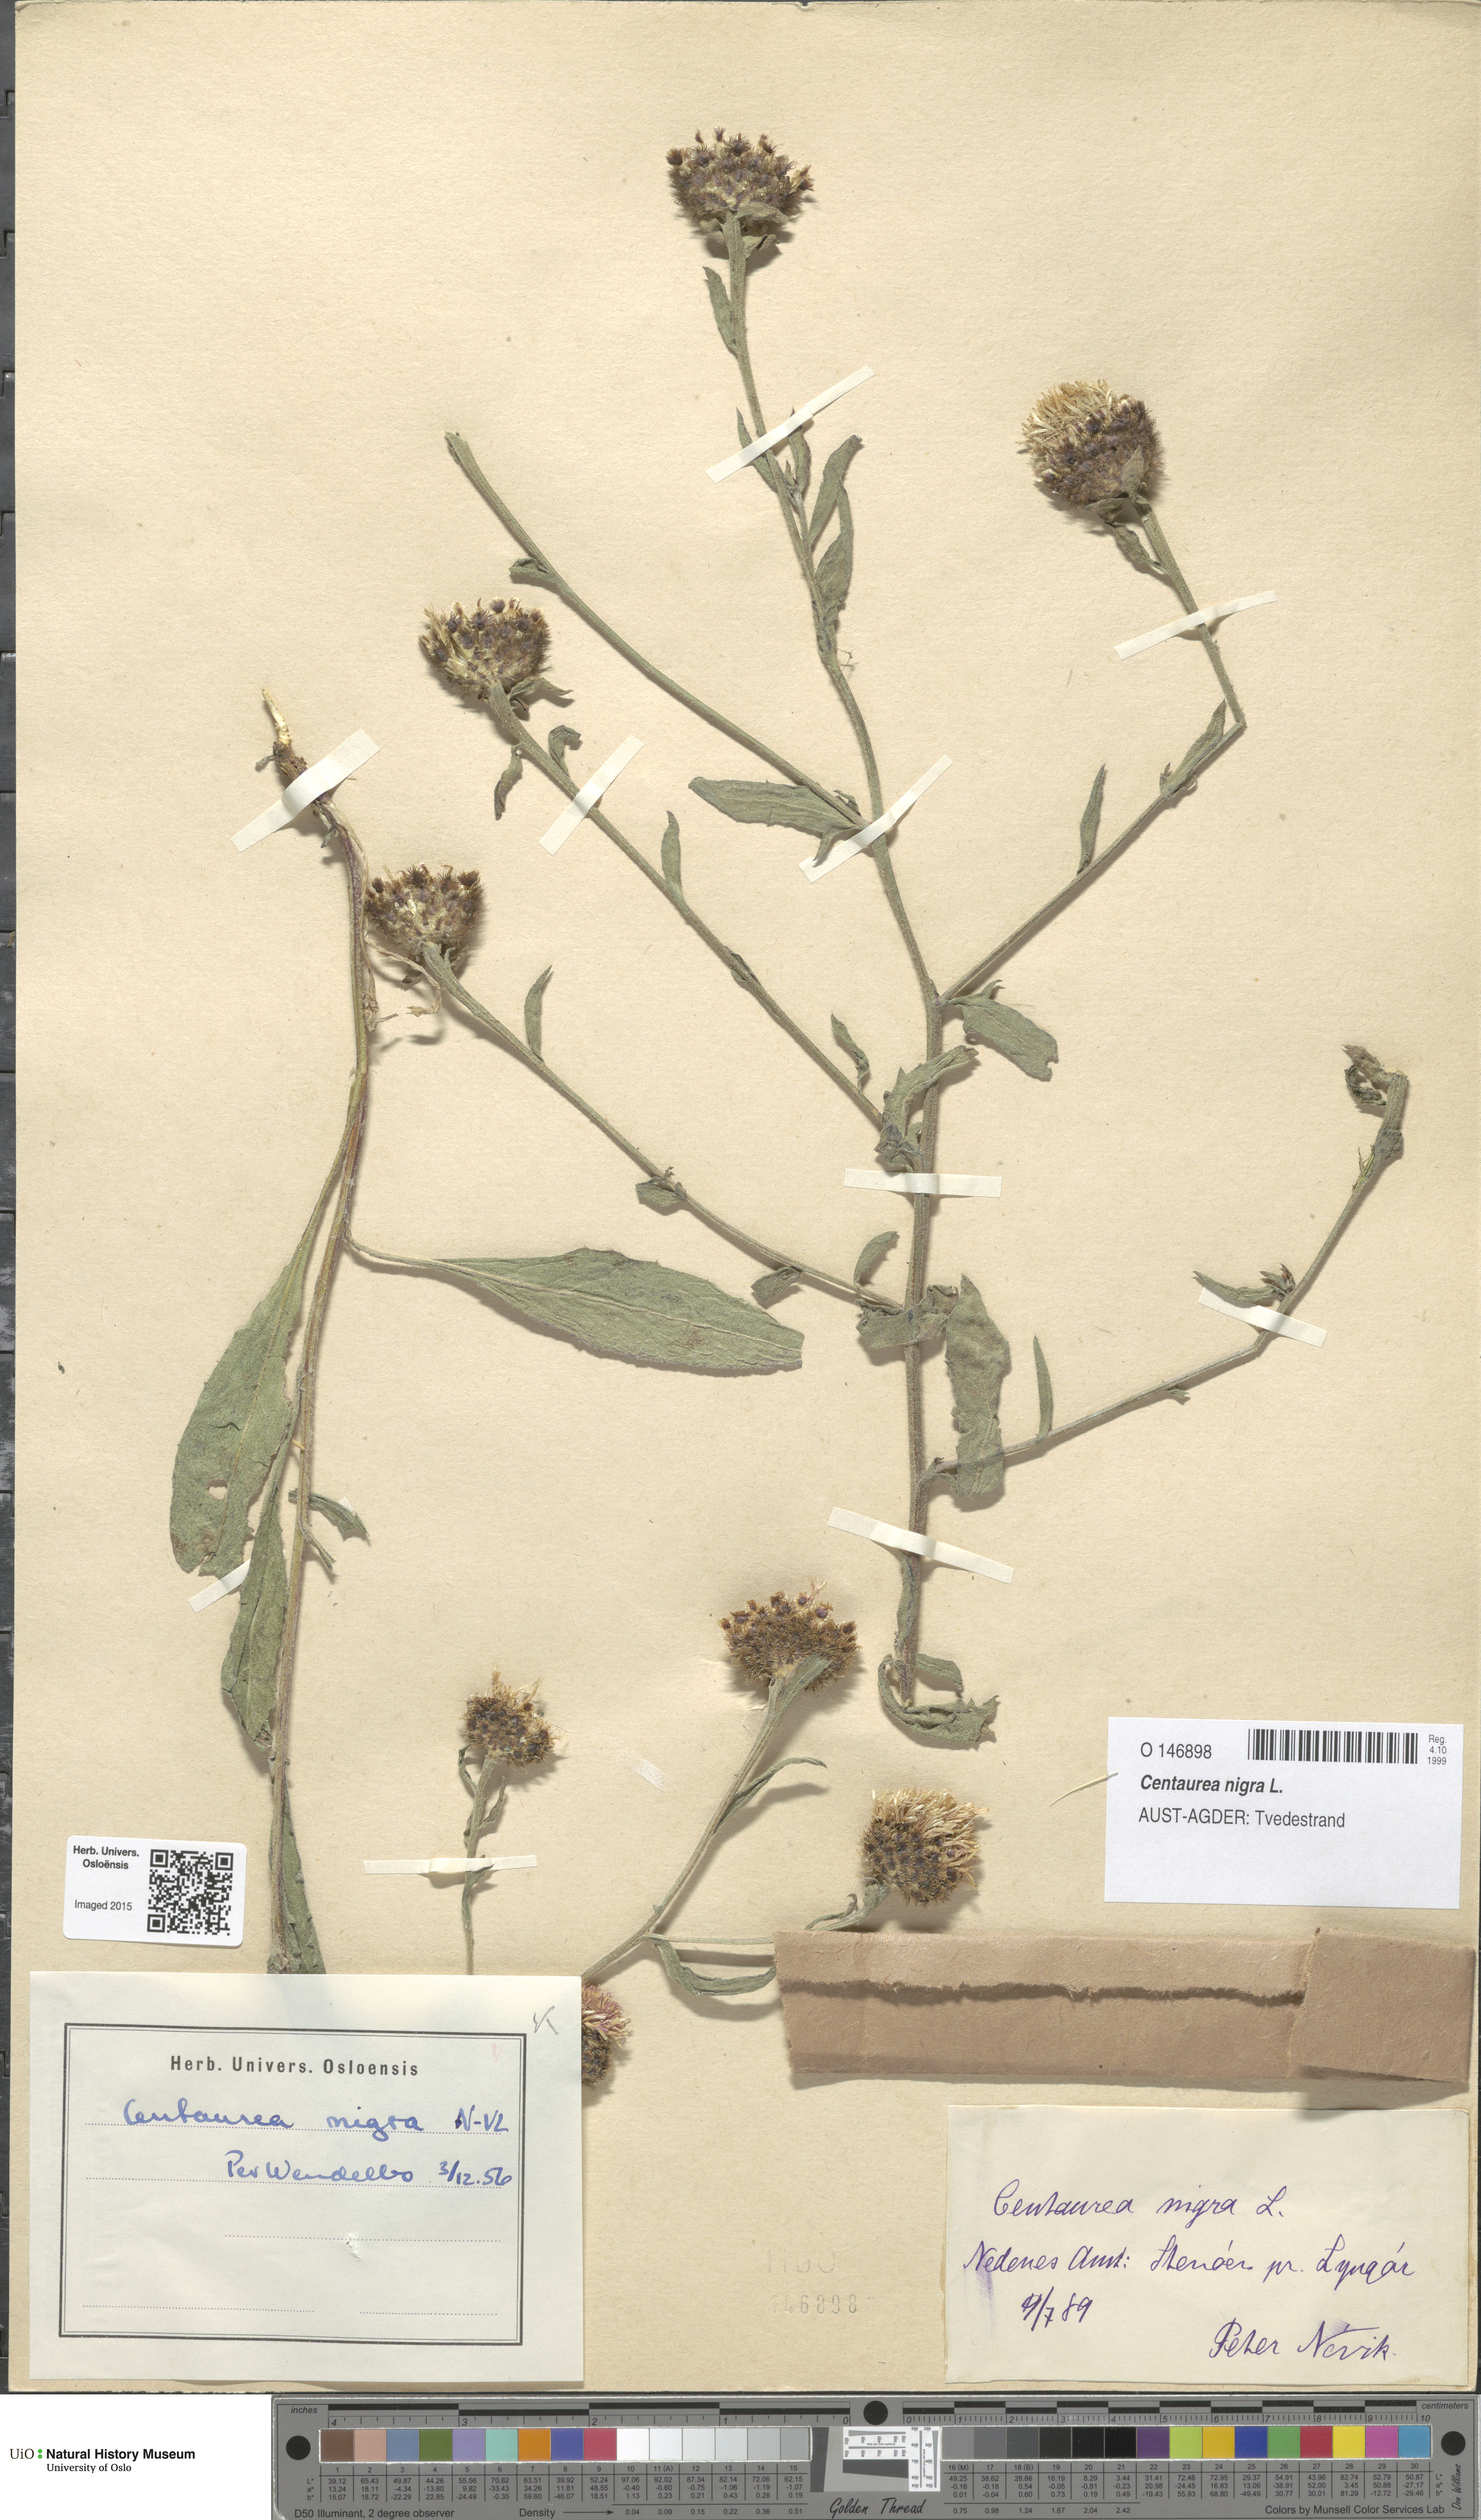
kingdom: Plantae
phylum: Tracheophyta
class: Magnoliopsida
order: Asterales
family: Asteraceae
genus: Centaurea
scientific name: Centaurea nigra
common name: Lesser knapweed
